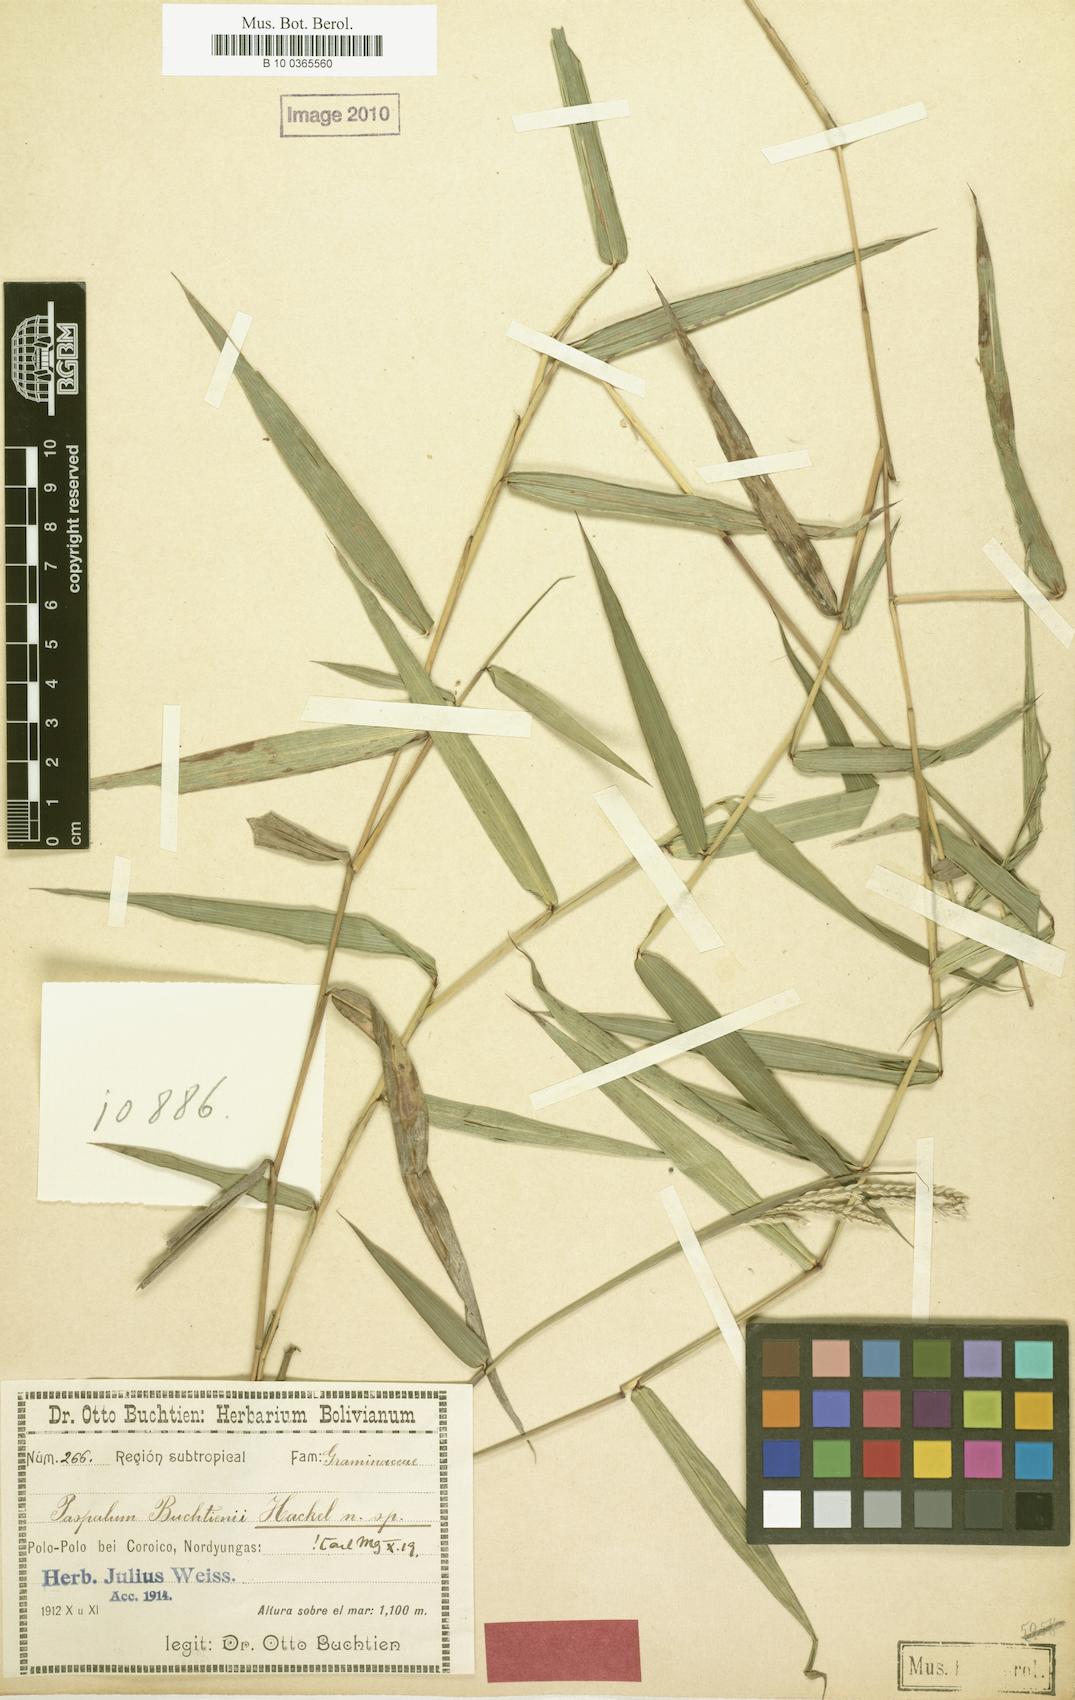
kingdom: Plantae
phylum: Tracheophyta
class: Liliopsida
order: Poales
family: Poaceae
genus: Paspalum
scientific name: Paspalum buchtienii
